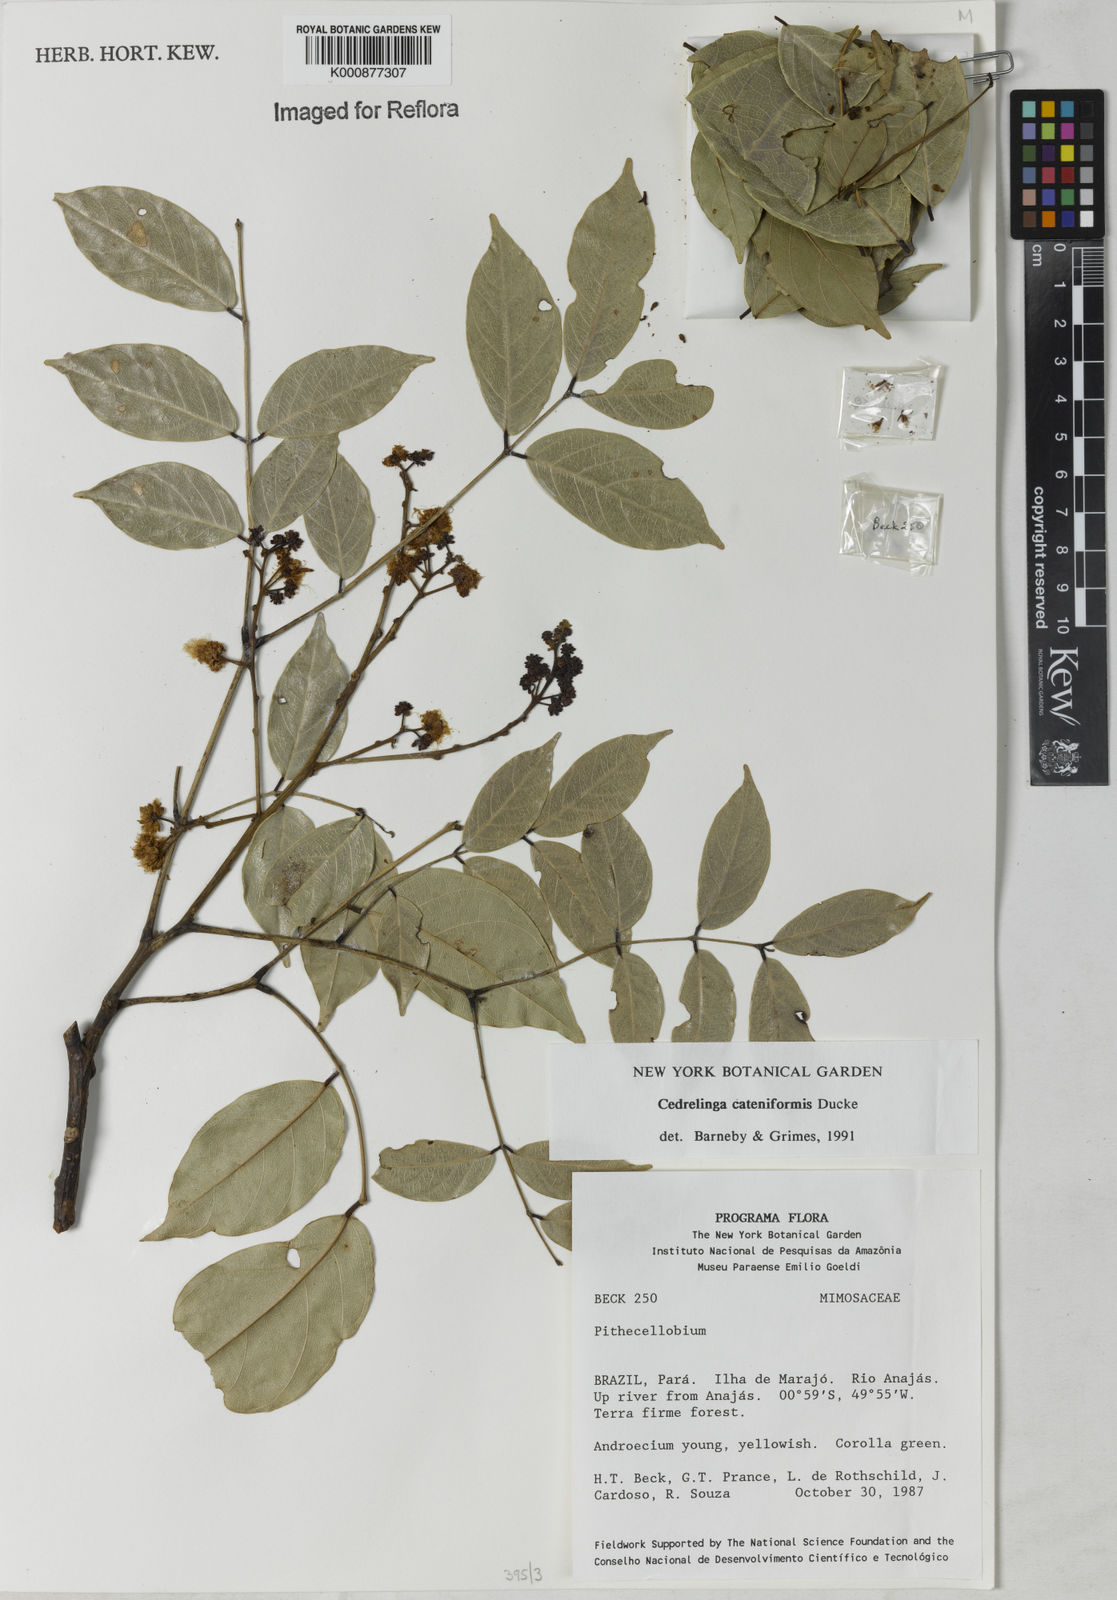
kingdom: Plantae
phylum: Tracheophyta
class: Magnoliopsida
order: Fabales
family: Fabaceae
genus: Cedrelinga
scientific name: Cedrelinga cateniformis
